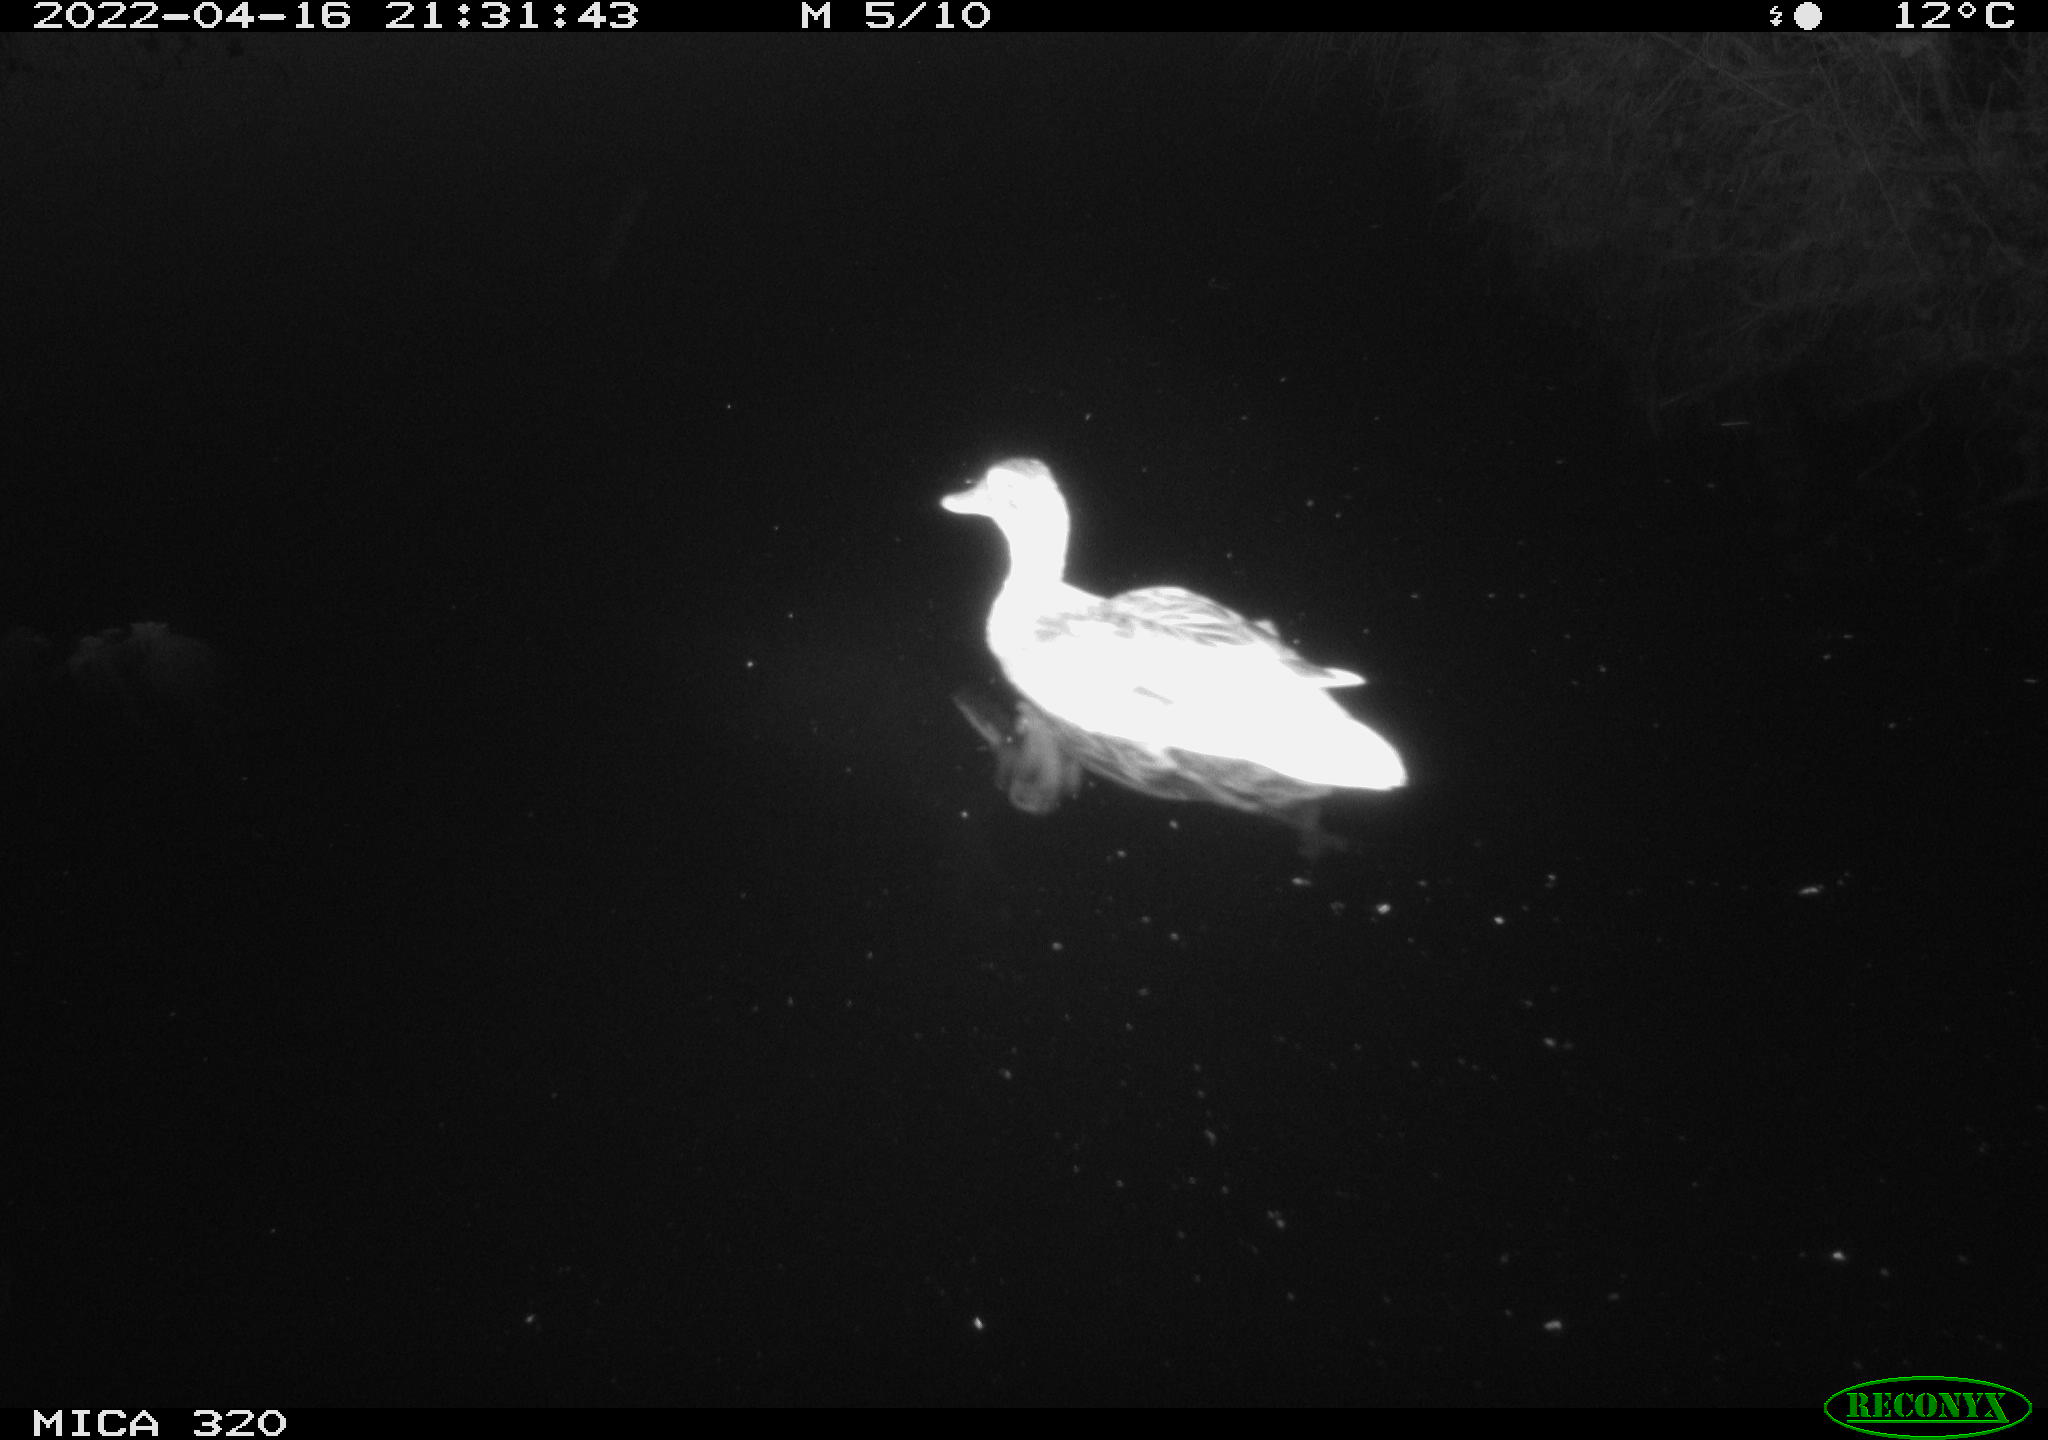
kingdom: Animalia
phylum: Chordata
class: Aves
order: Anseriformes
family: Anatidae
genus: Anas
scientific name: Anas platyrhynchos
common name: Mallard
